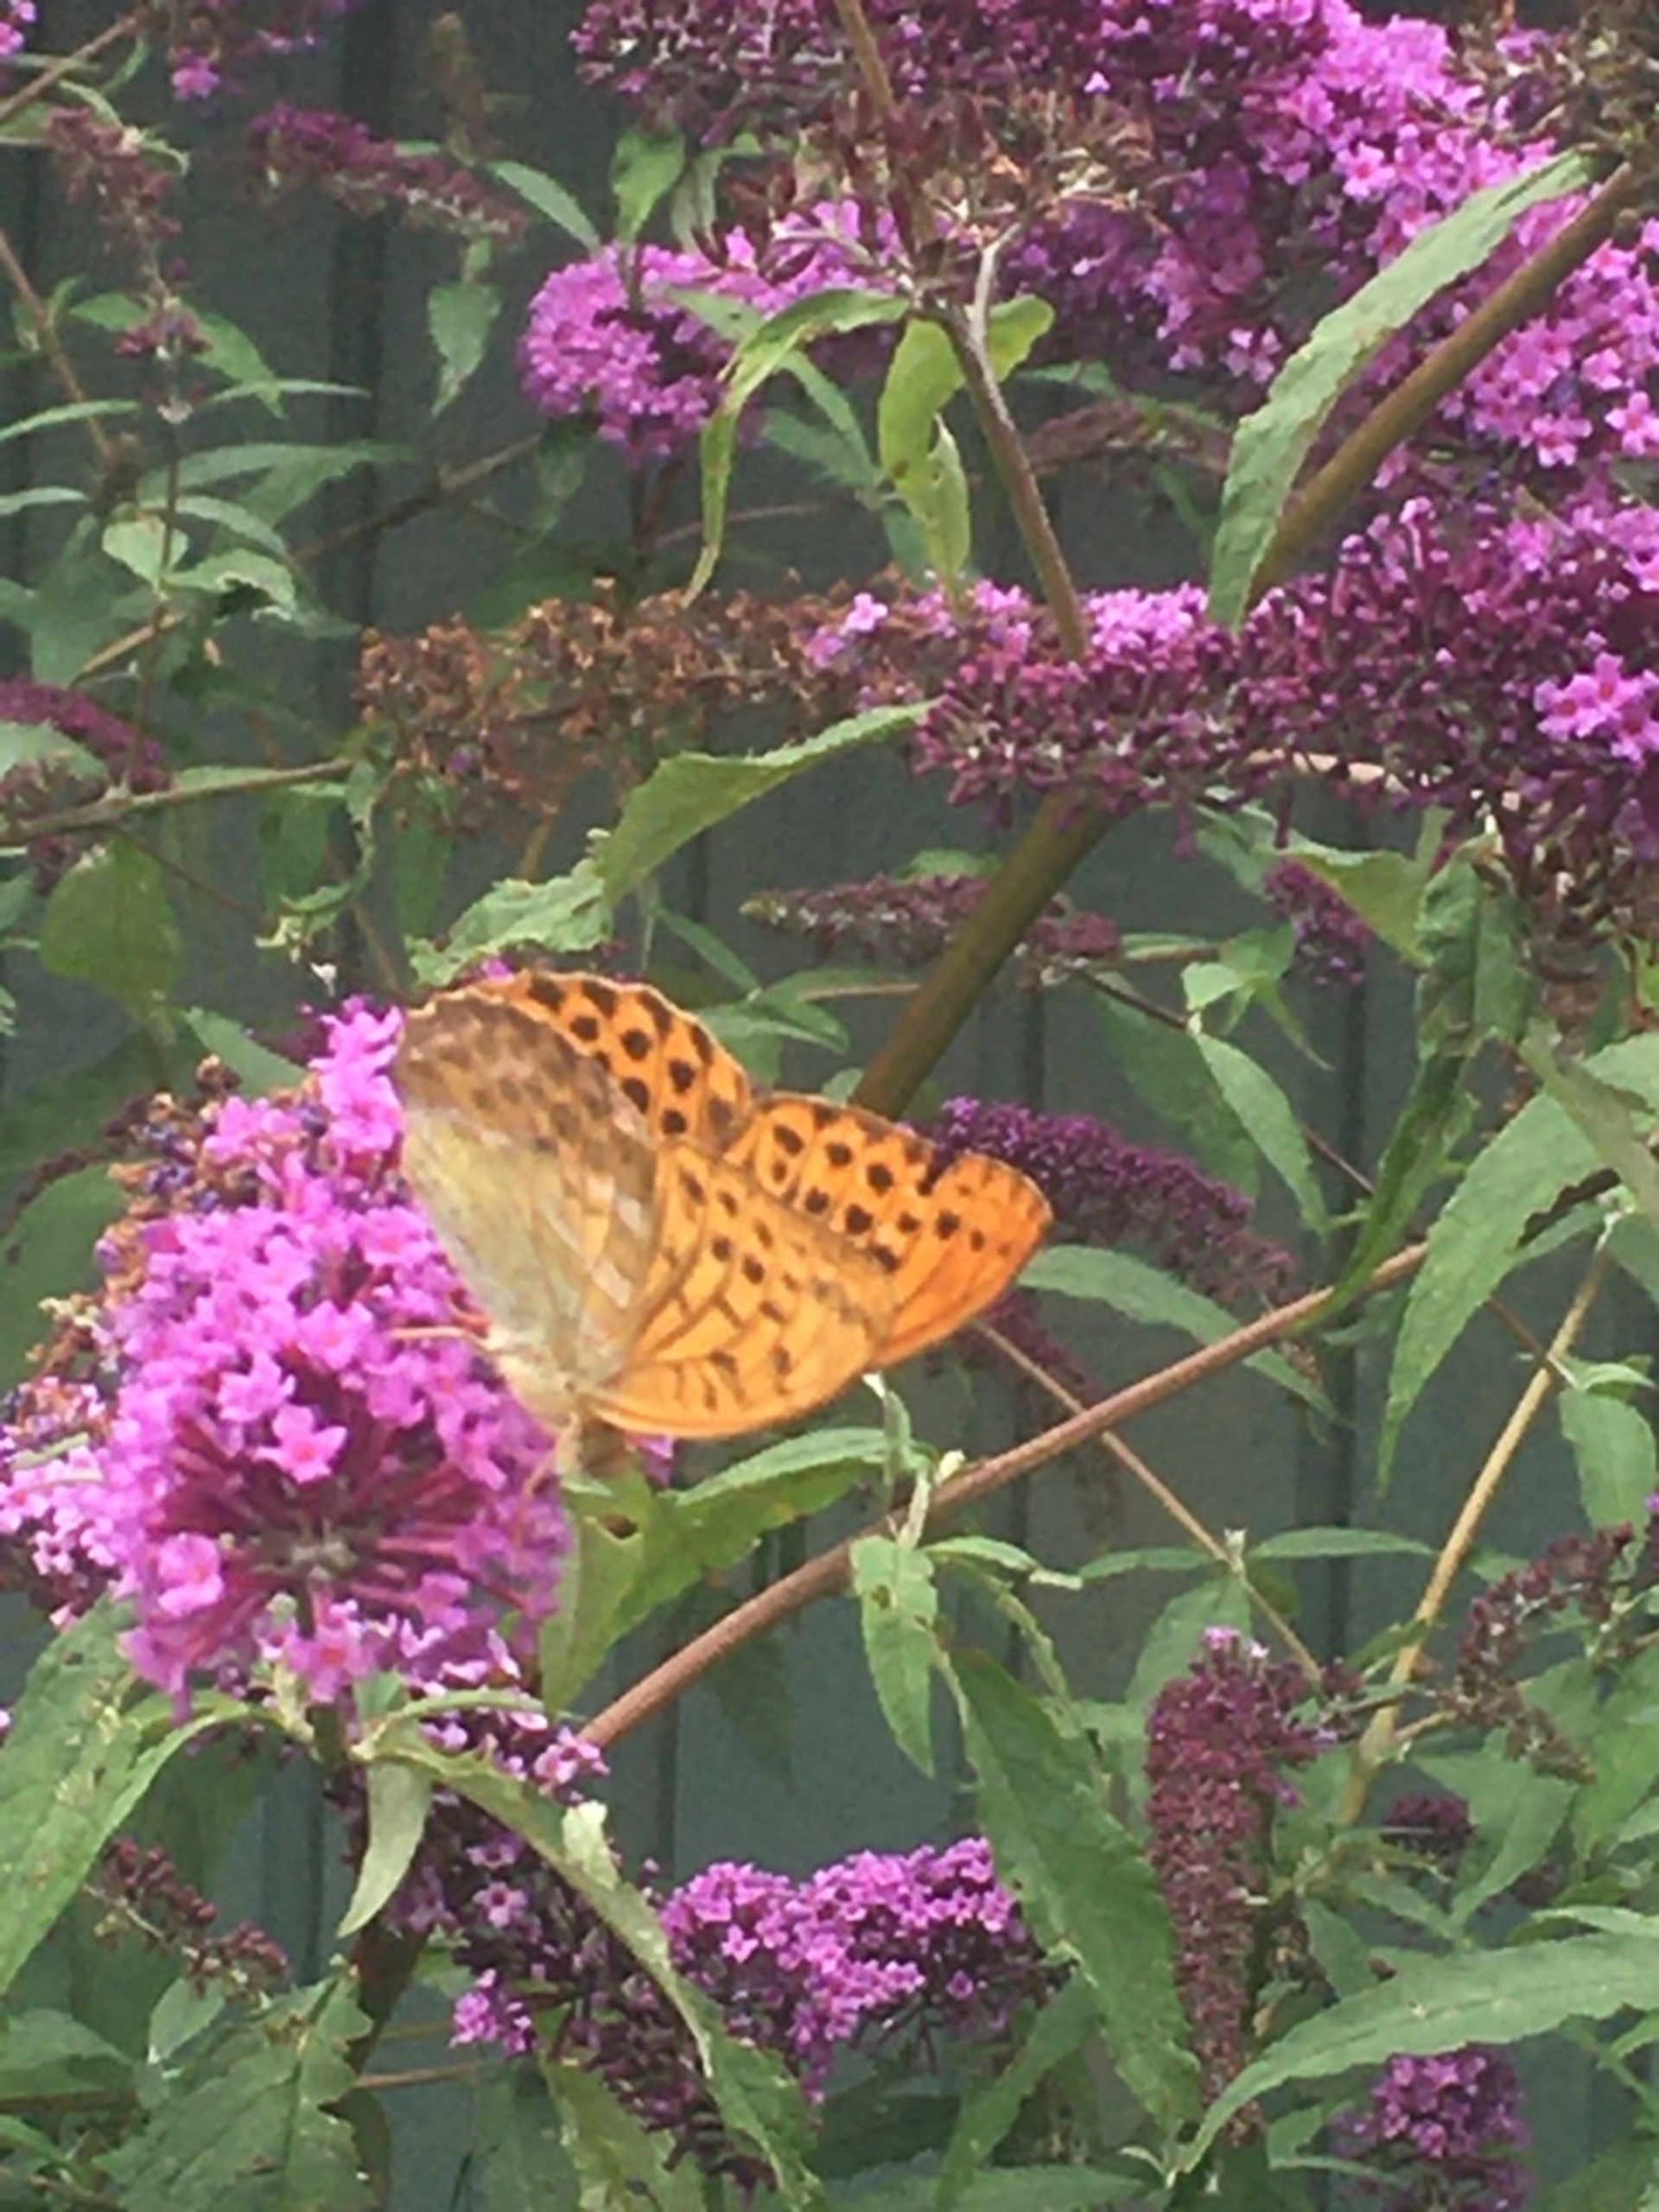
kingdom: Animalia
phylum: Arthropoda
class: Insecta
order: Lepidoptera
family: Nymphalidae
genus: Argynnis
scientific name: Argynnis paphia
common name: Kejserkåbe
